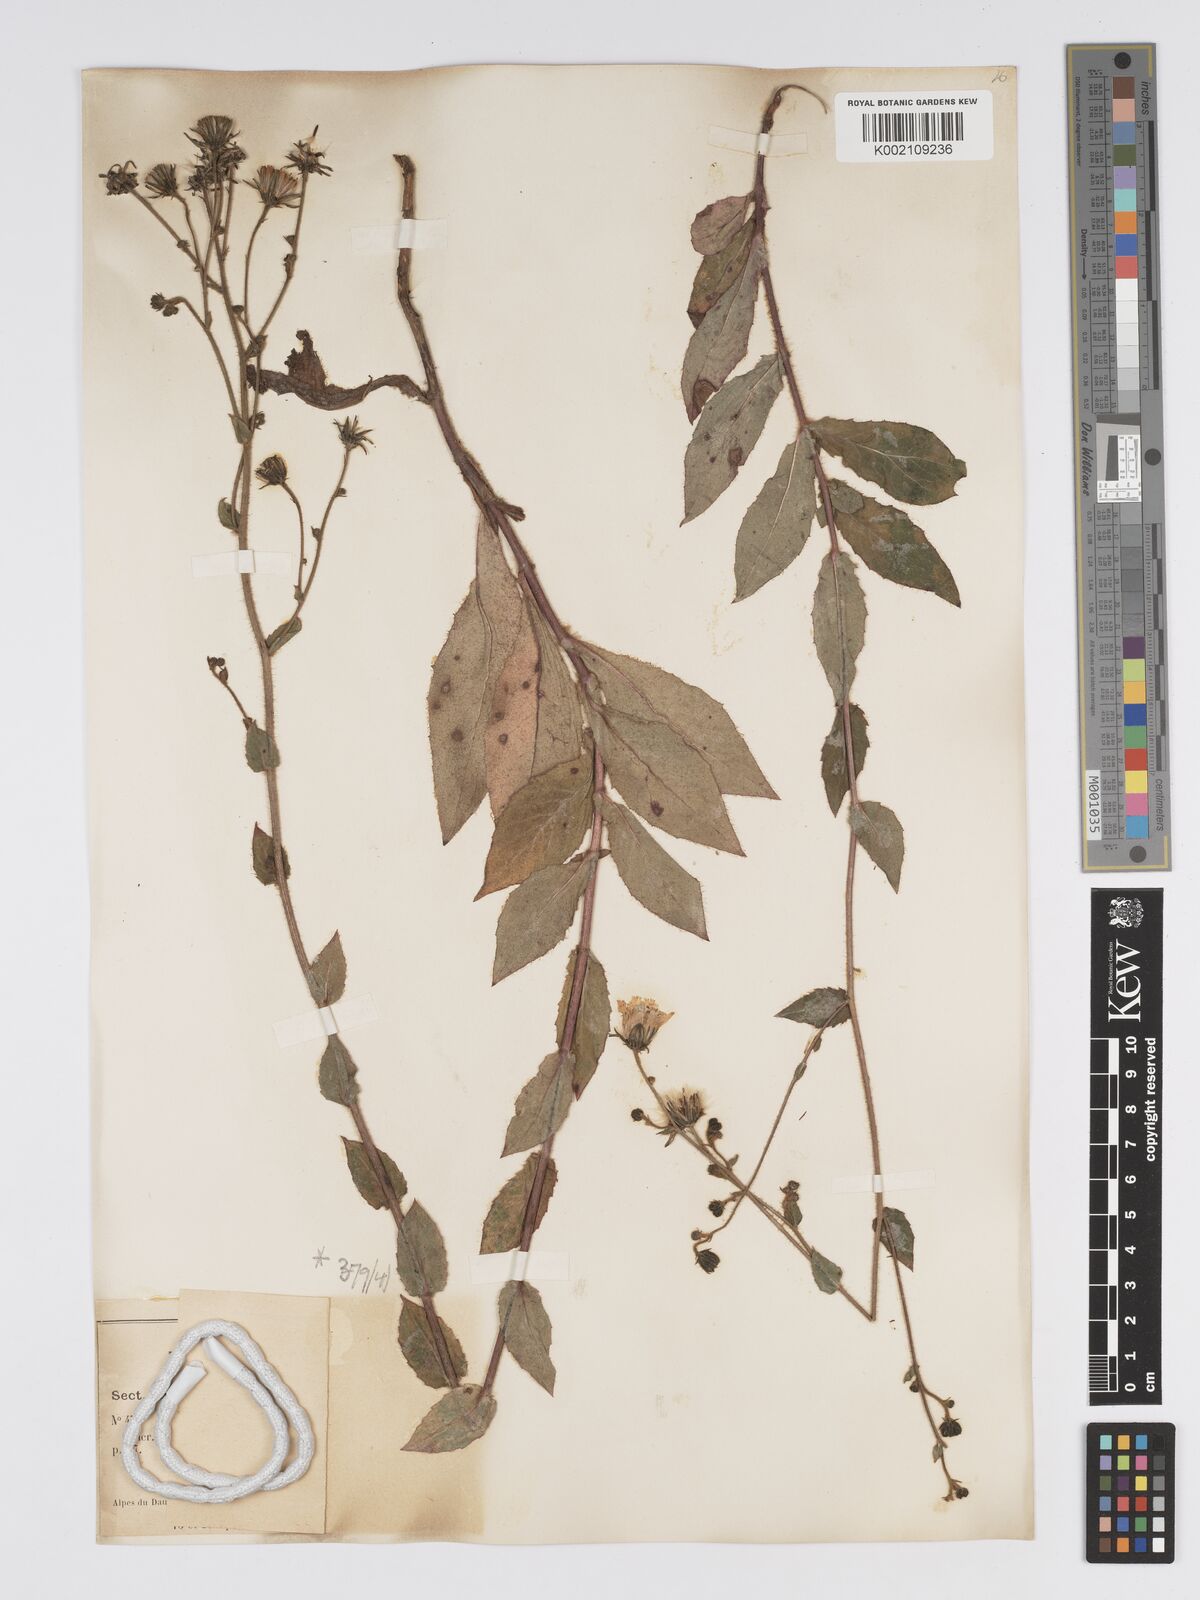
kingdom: Plantae
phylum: Tracheophyta
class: Magnoliopsida
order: Asterales
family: Asteraceae
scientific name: Asteraceae
